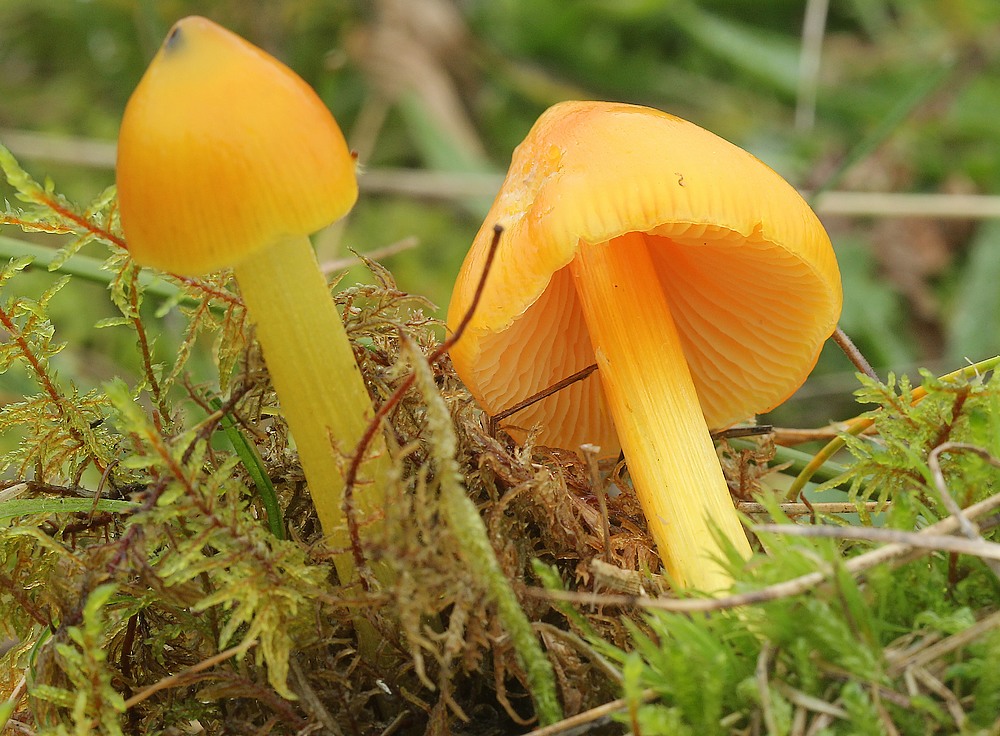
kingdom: Fungi
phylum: Basidiomycota
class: Agaricomycetes
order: Agaricales
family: Hygrophoraceae
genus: Hygrocybe
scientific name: Hygrocybe conica
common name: kegle-vokshat
